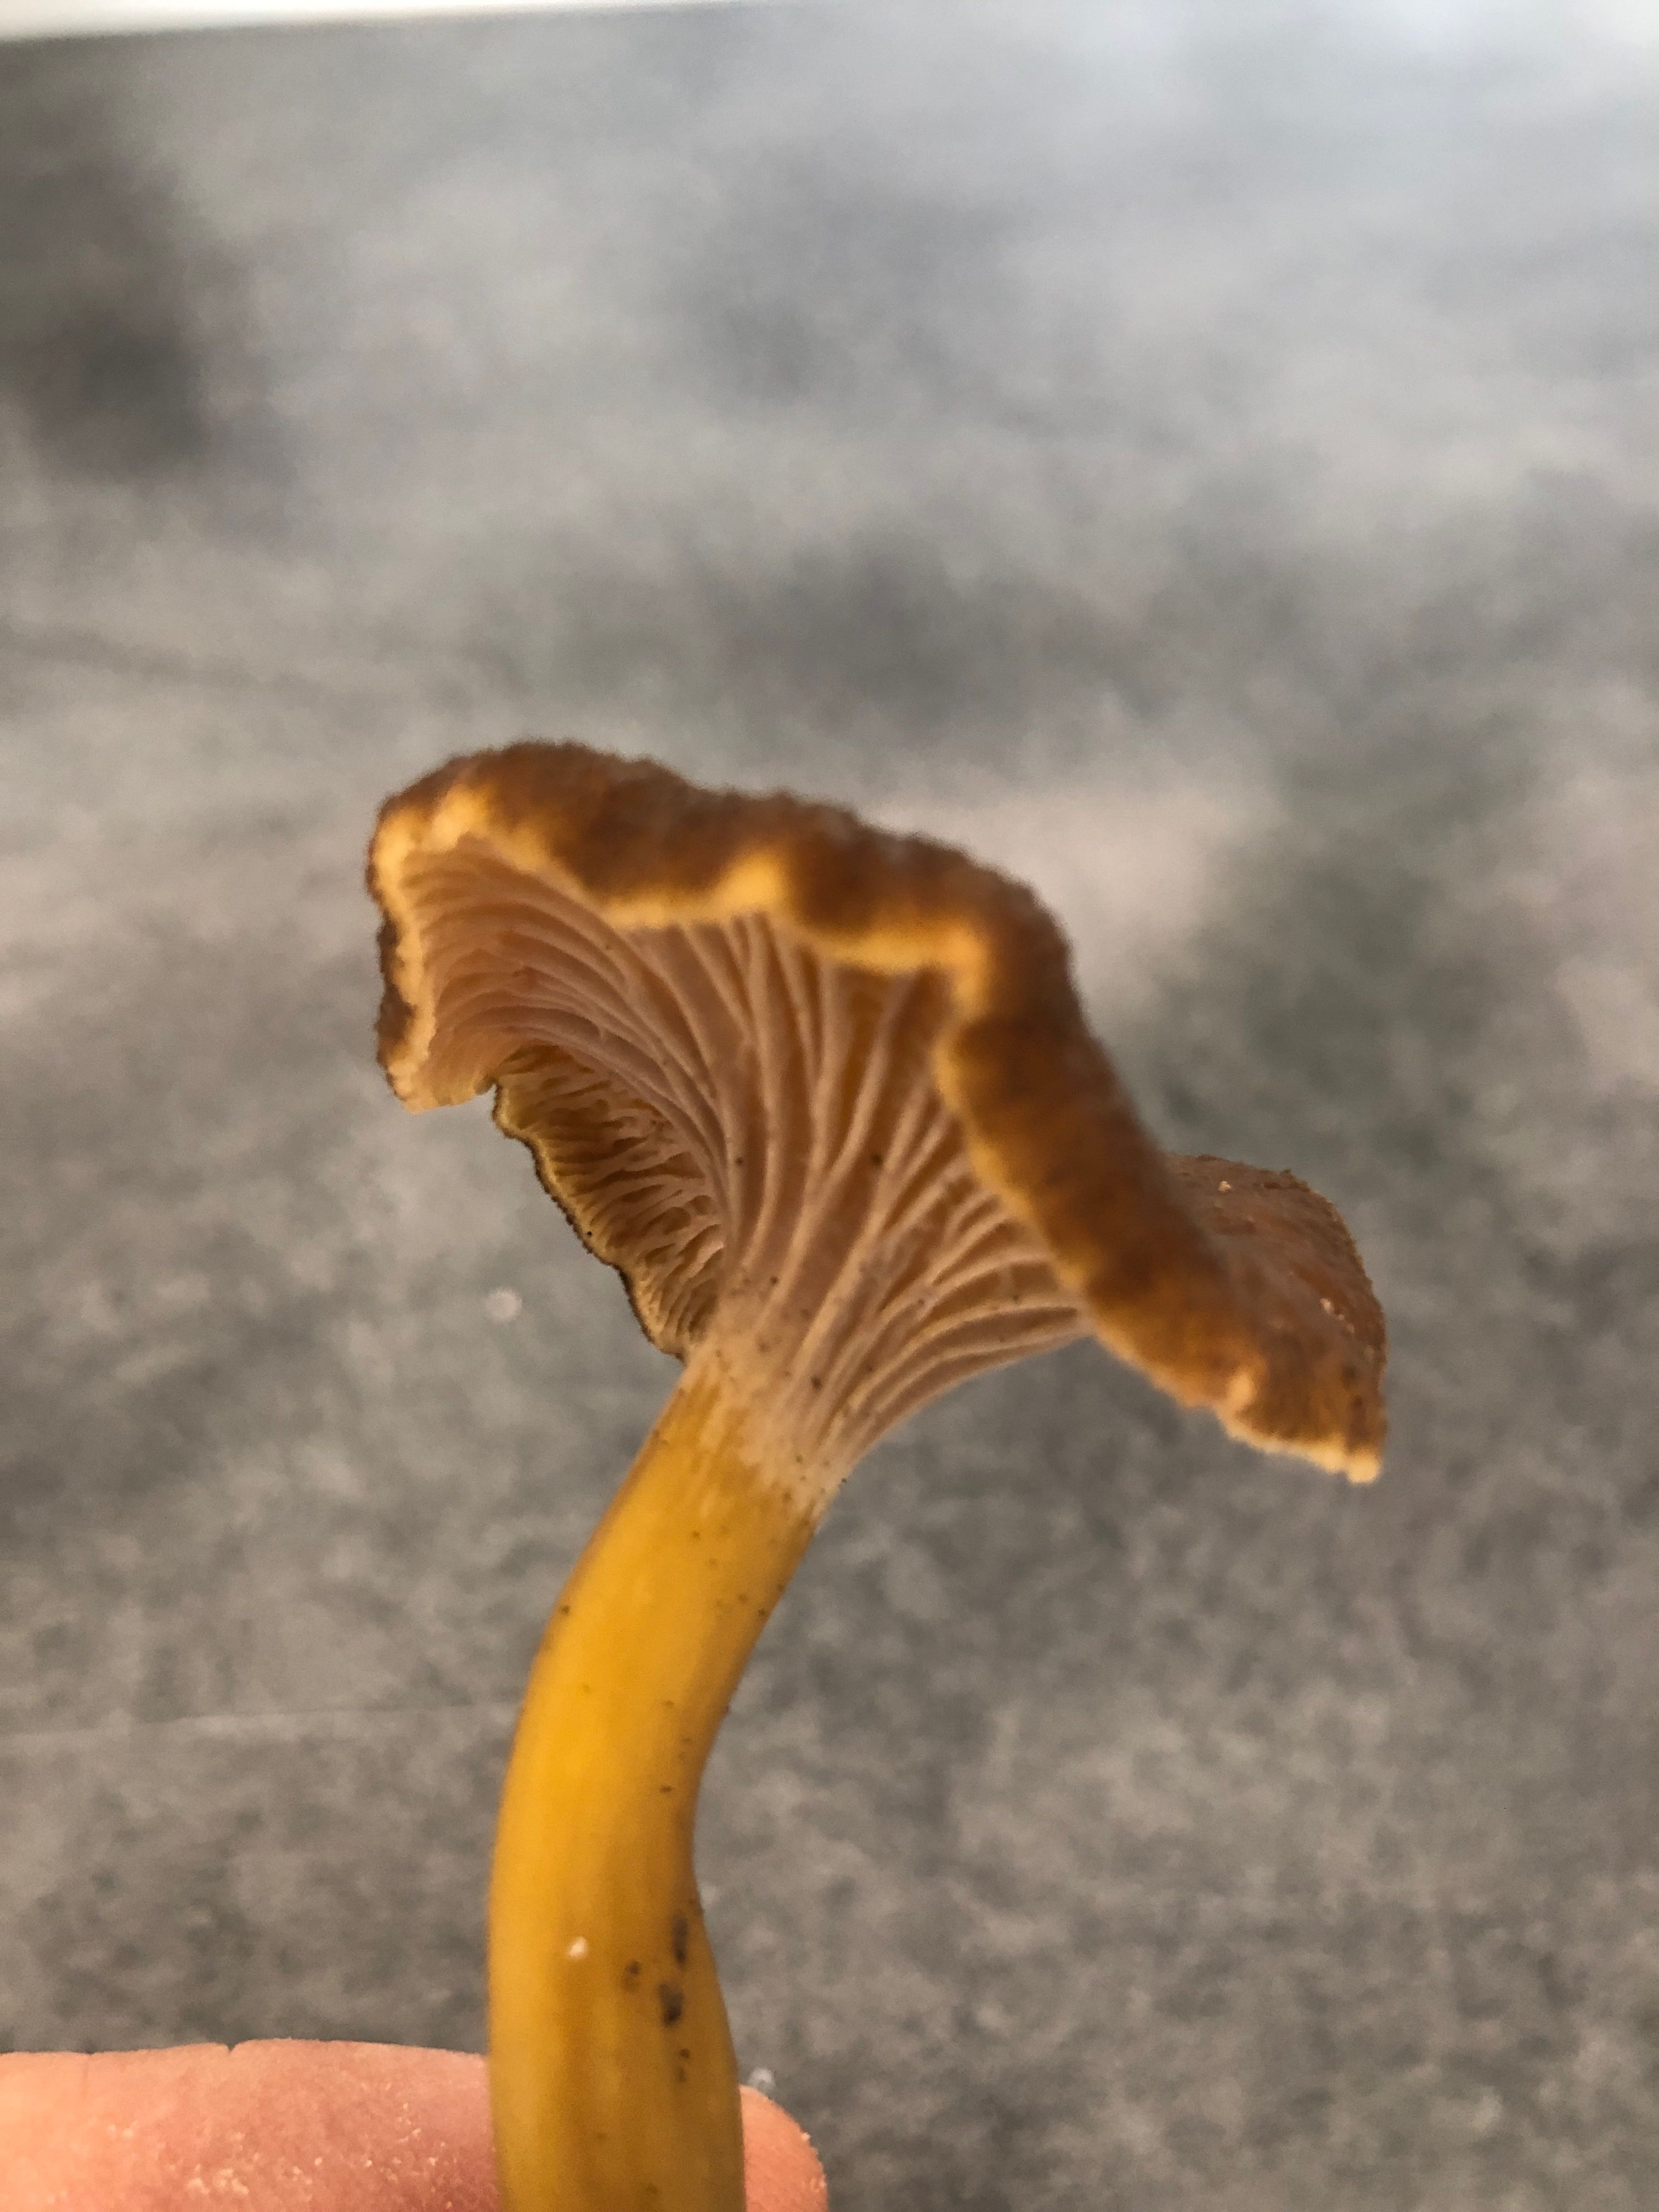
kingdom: Fungi
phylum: Basidiomycota
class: Agaricomycetes
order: Cantharellales
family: Hydnaceae
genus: Craterellus
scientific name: Craterellus tubaeformis
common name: tragt-kantarel
